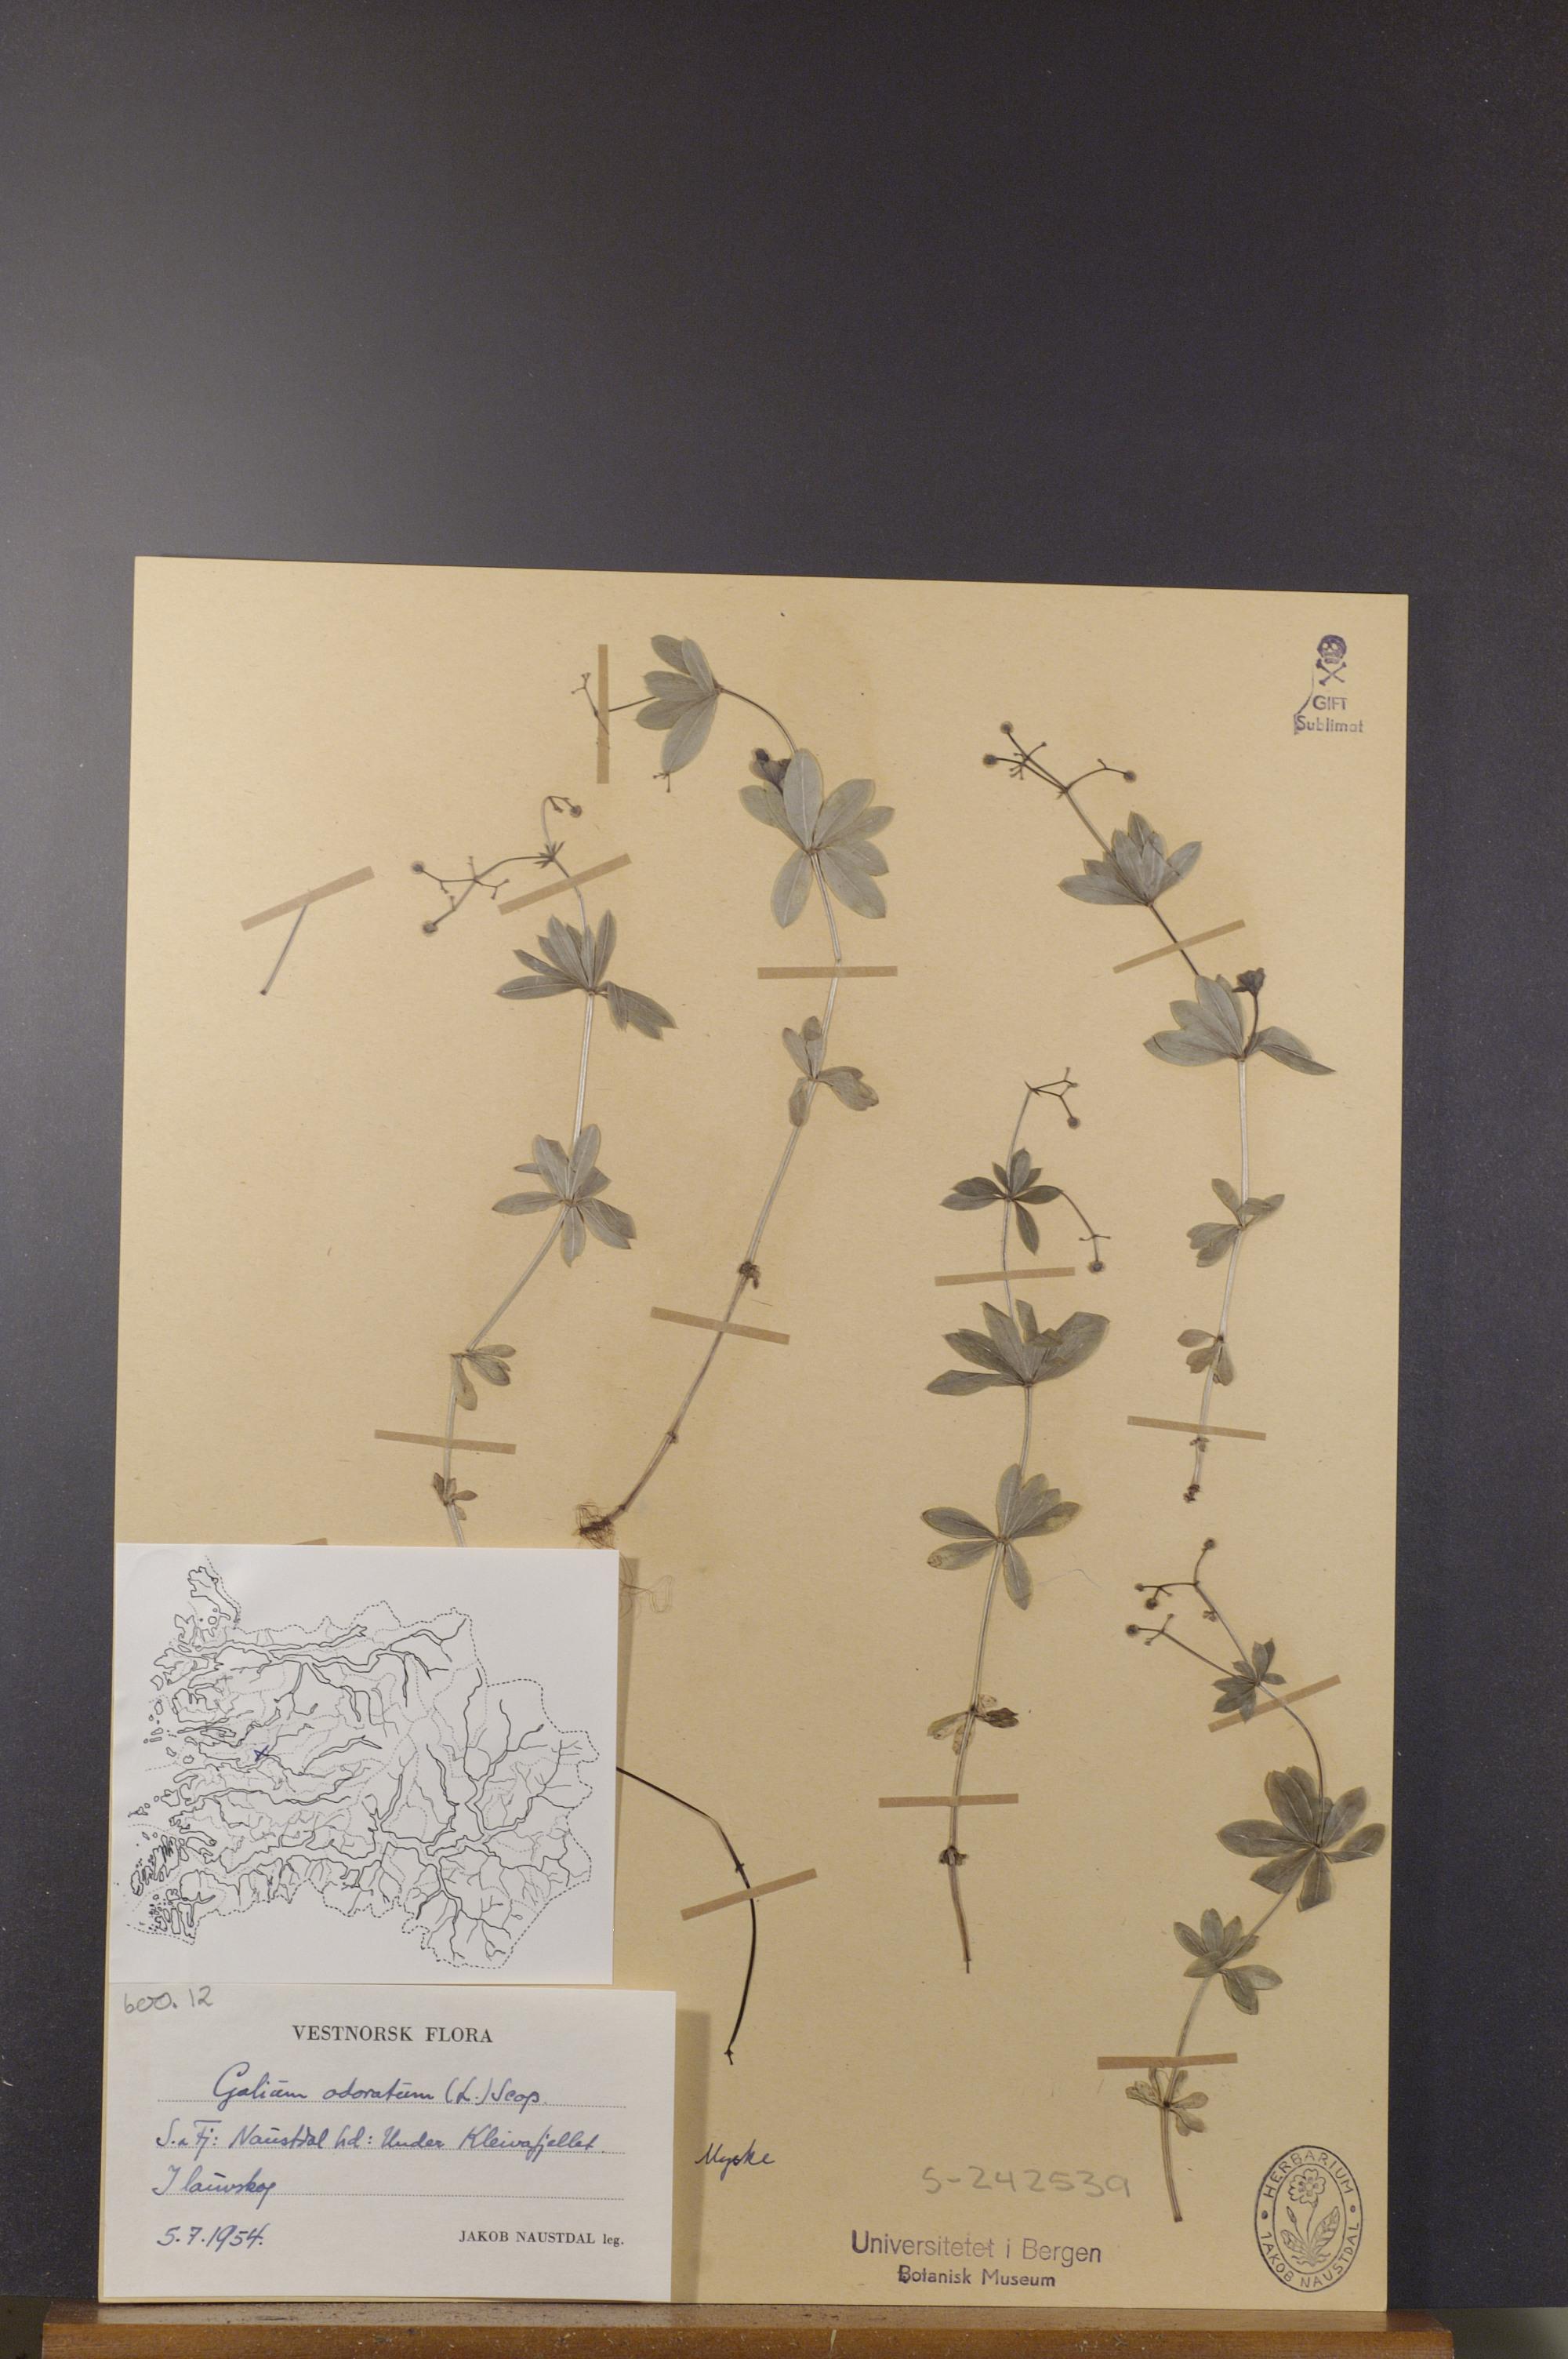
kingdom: Plantae
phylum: Tracheophyta
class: Magnoliopsida
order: Gentianales
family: Rubiaceae
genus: Galium
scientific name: Galium odoratum
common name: Sweet woodruff
